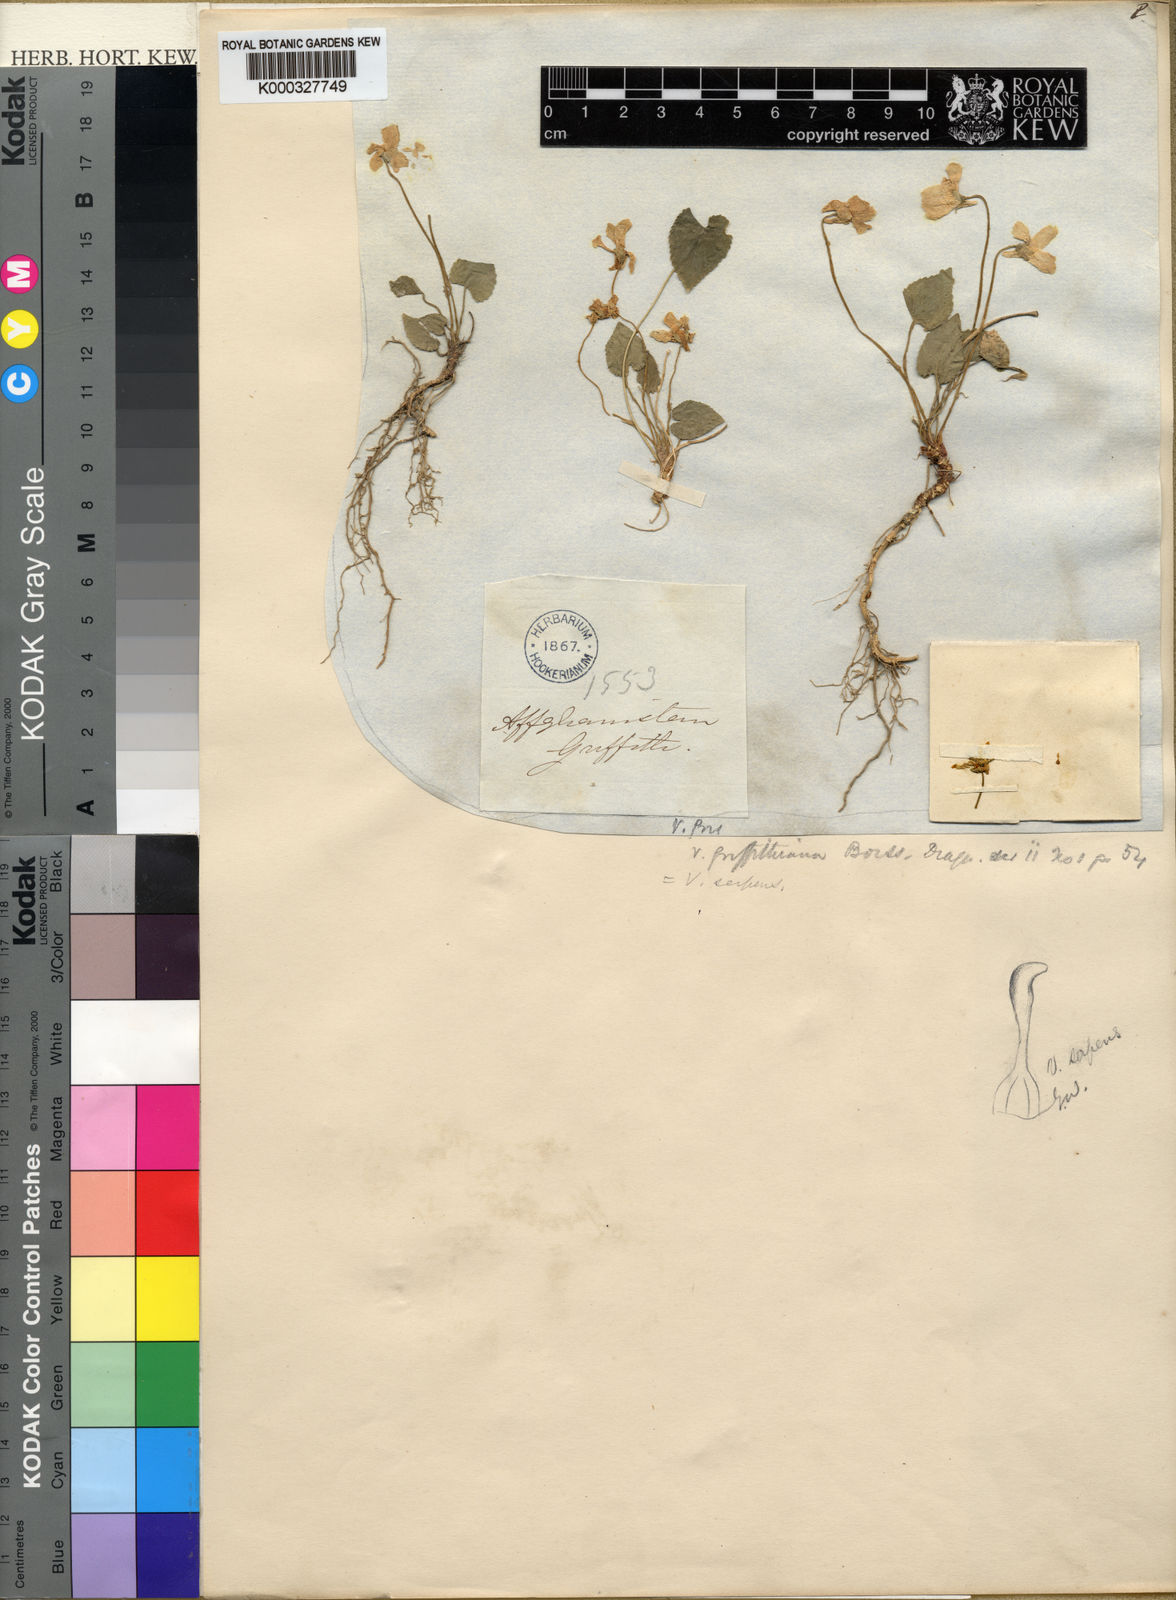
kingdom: Plantae
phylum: Tracheophyta
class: Magnoliopsida
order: Malpighiales
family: Violaceae
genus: Viola
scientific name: Viola pilosa
